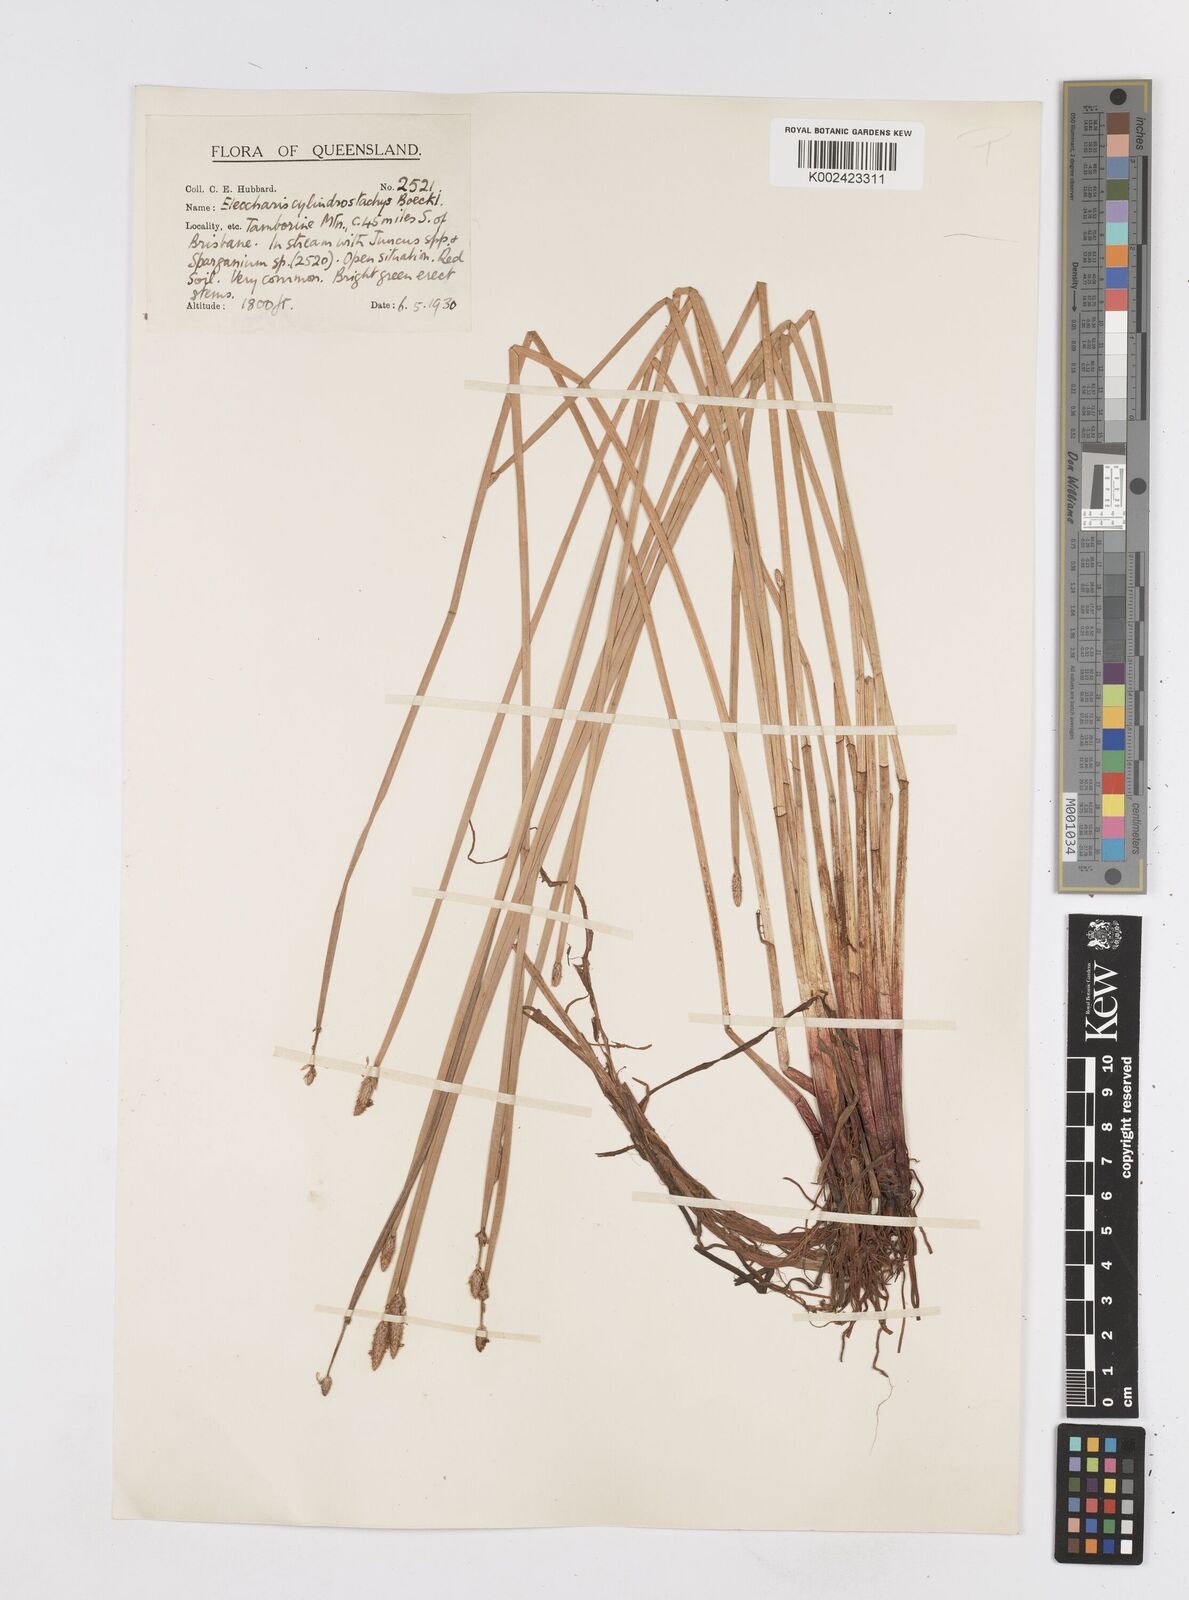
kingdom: Plantae
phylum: Tracheophyta
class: Liliopsida
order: Poales
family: Cyperaceae
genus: Eleocharis
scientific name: Eleocharis cylindrostachys
